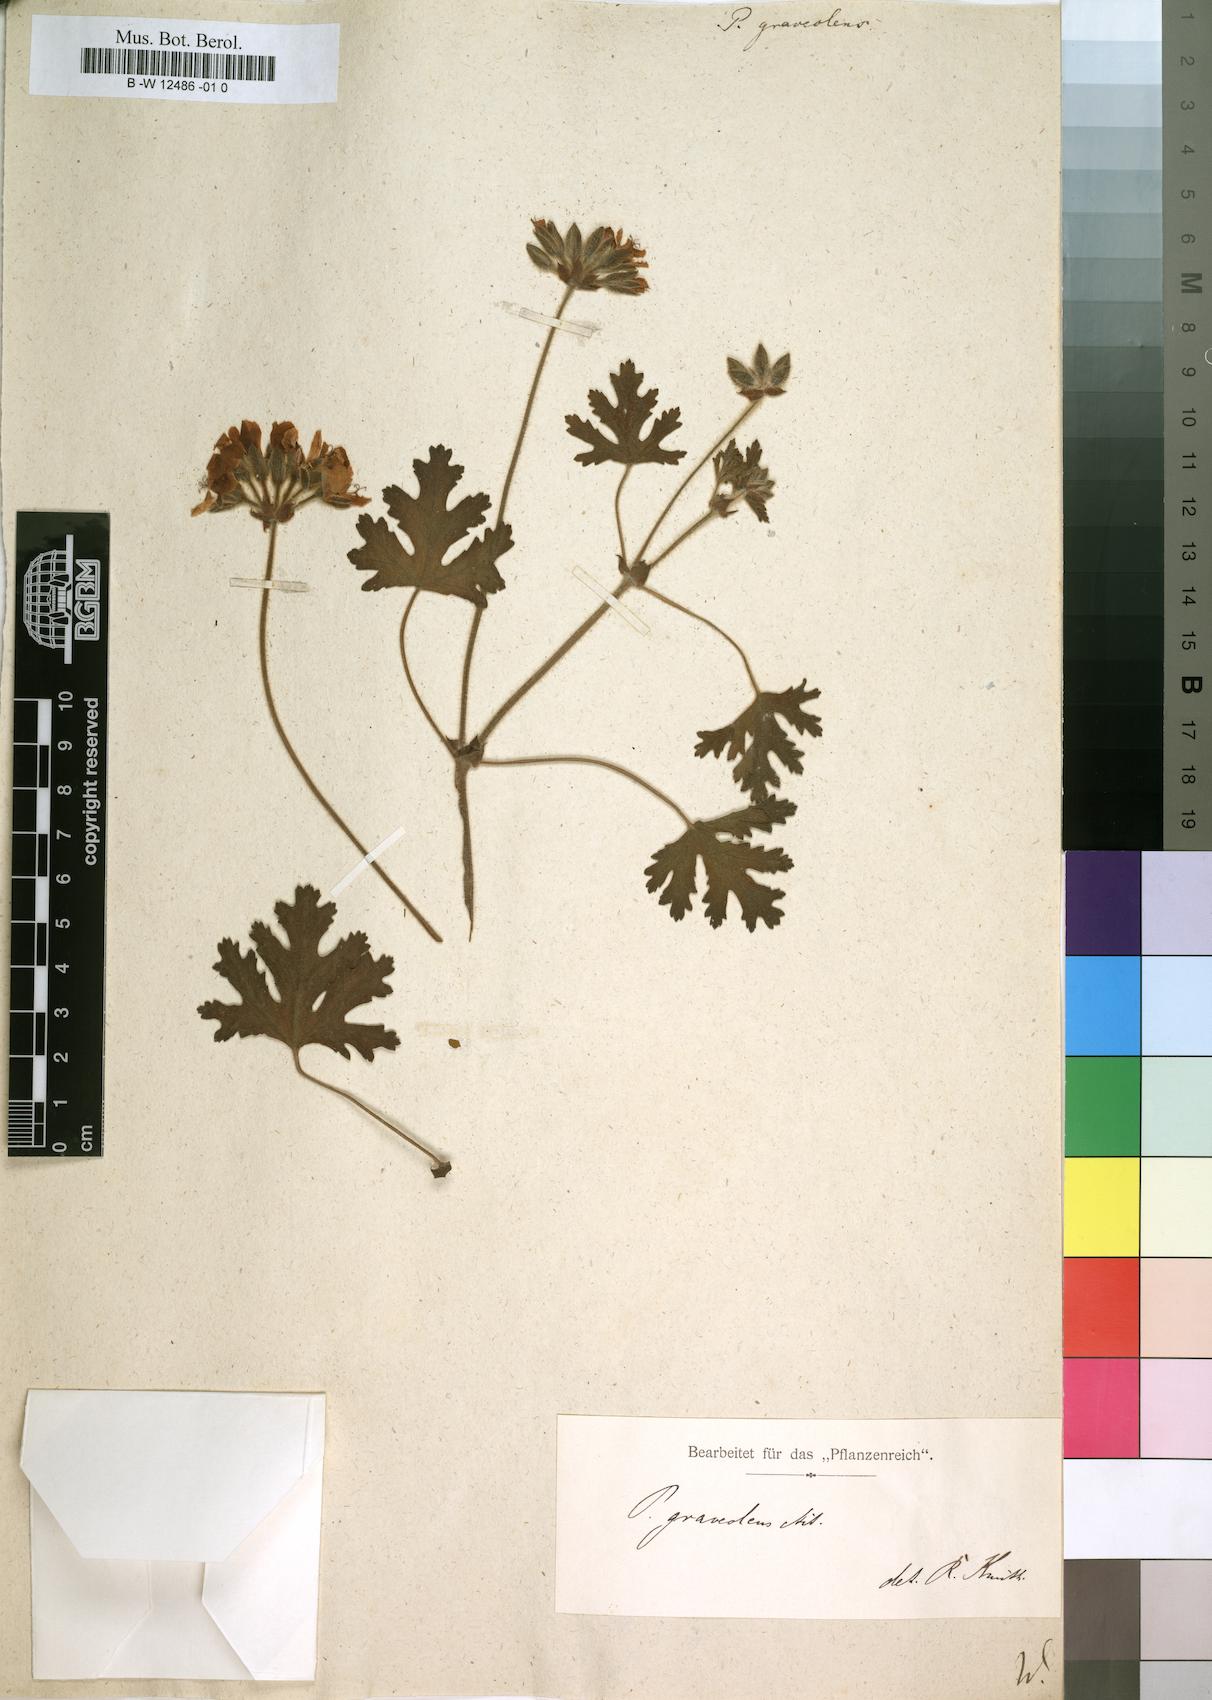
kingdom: Plantae
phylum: Tracheophyta
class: Magnoliopsida
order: Geraniales
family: Geraniaceae
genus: Pelargonium
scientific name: Pelargonium graveolens
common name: Rose-scent geranium
